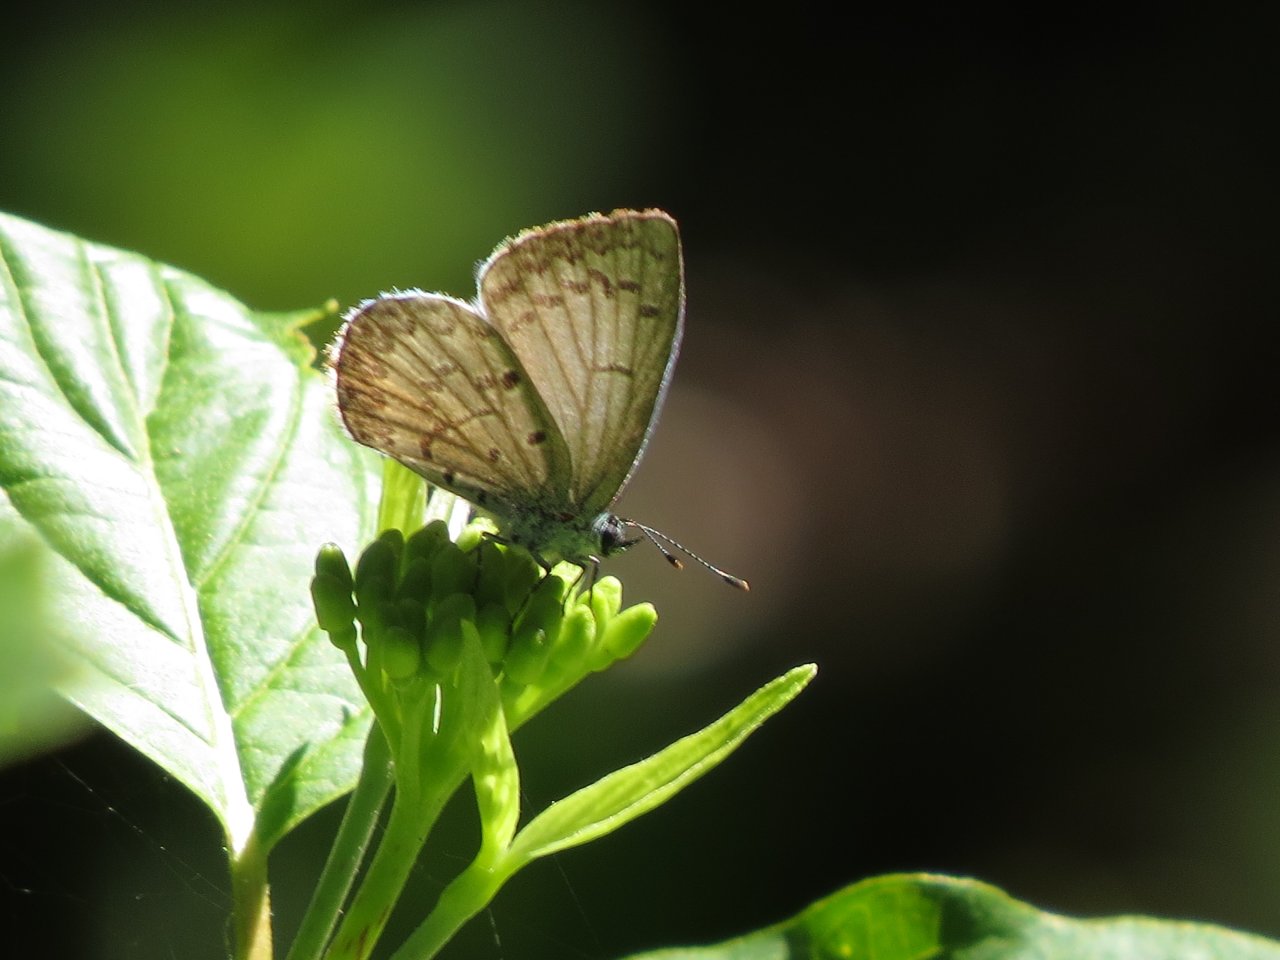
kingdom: Animalia
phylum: Arthropoda
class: Insecta
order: Lepidoptera
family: Lycaenidae
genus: Celastrina
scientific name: Celastrina lucia
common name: Northern Spring Azure
